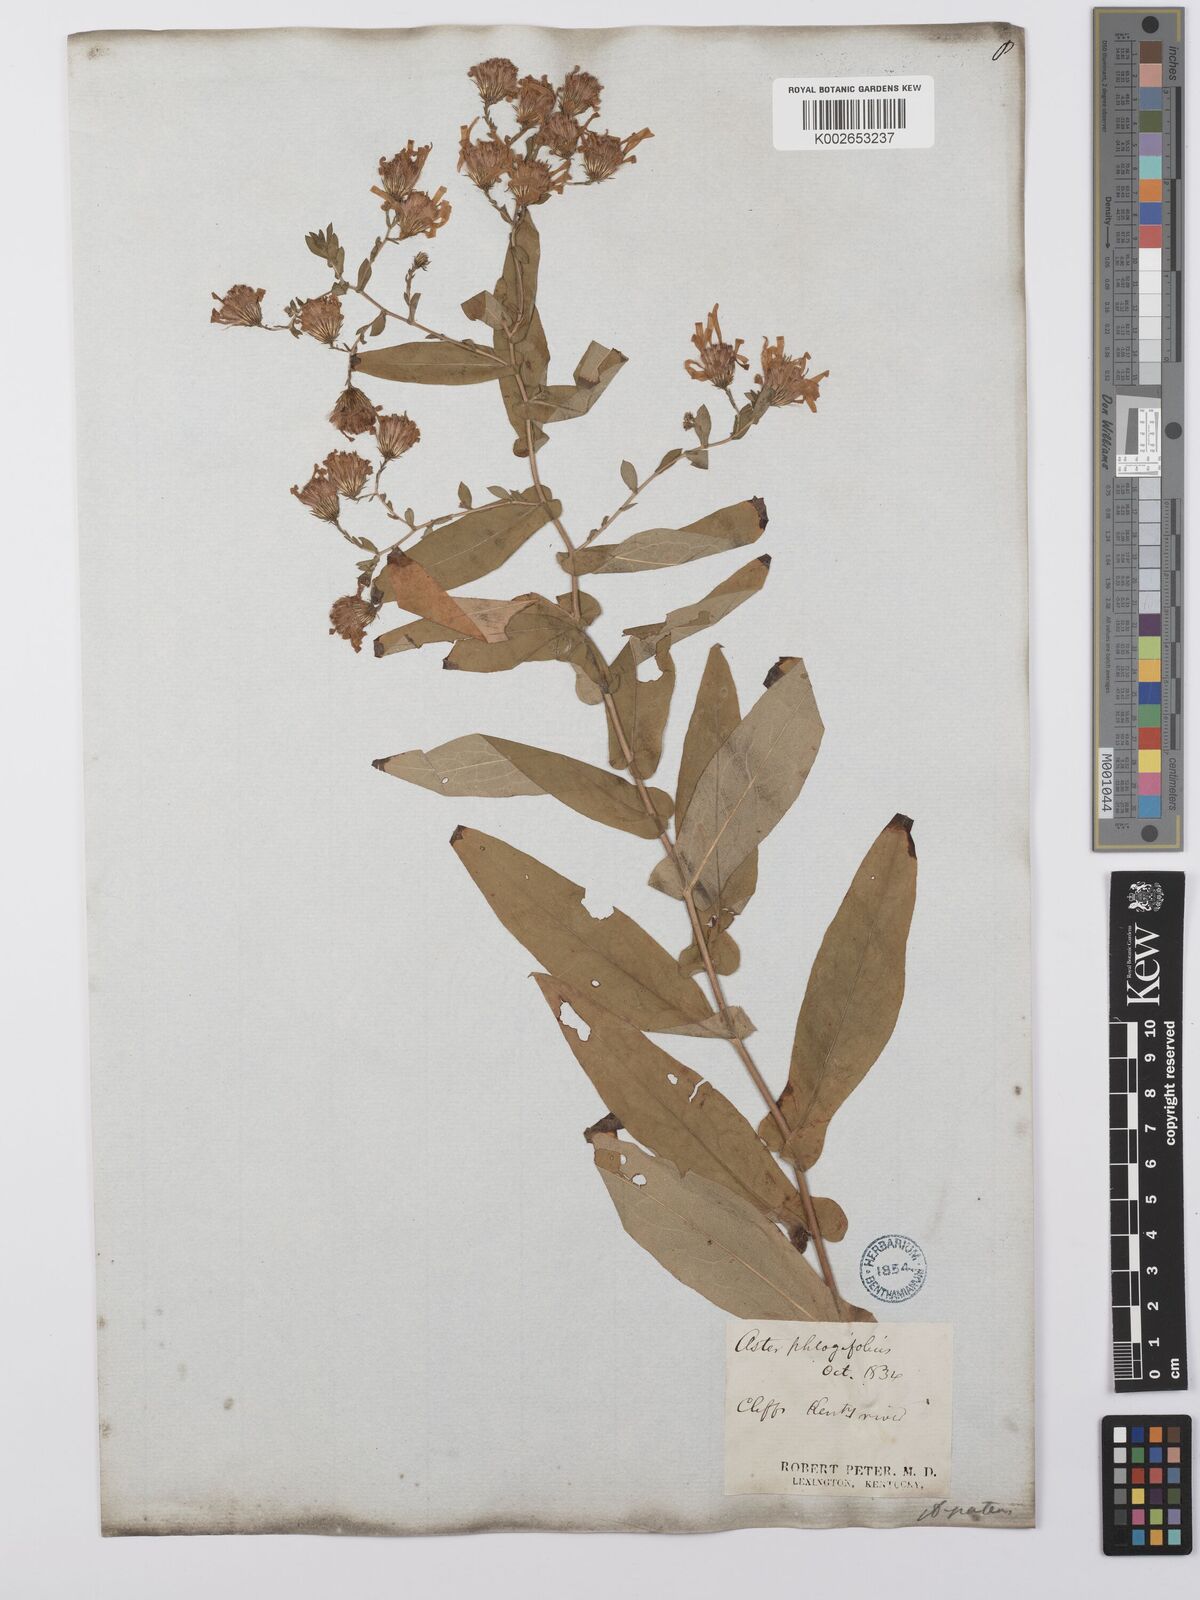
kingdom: Plantae
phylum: Tracheophyta
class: Magnoliopsida
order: Asterales
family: Asteraceae
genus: Symphyotrichum
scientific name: Symphyotrichum phlogifolium
